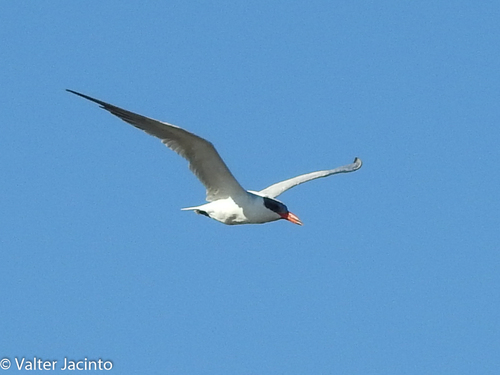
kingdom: Animalia
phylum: Chordata
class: Aves
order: Charadriiformes
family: Laridae
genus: Hydroprogne
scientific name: Hydroprogne caspia
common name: Caspian tern
